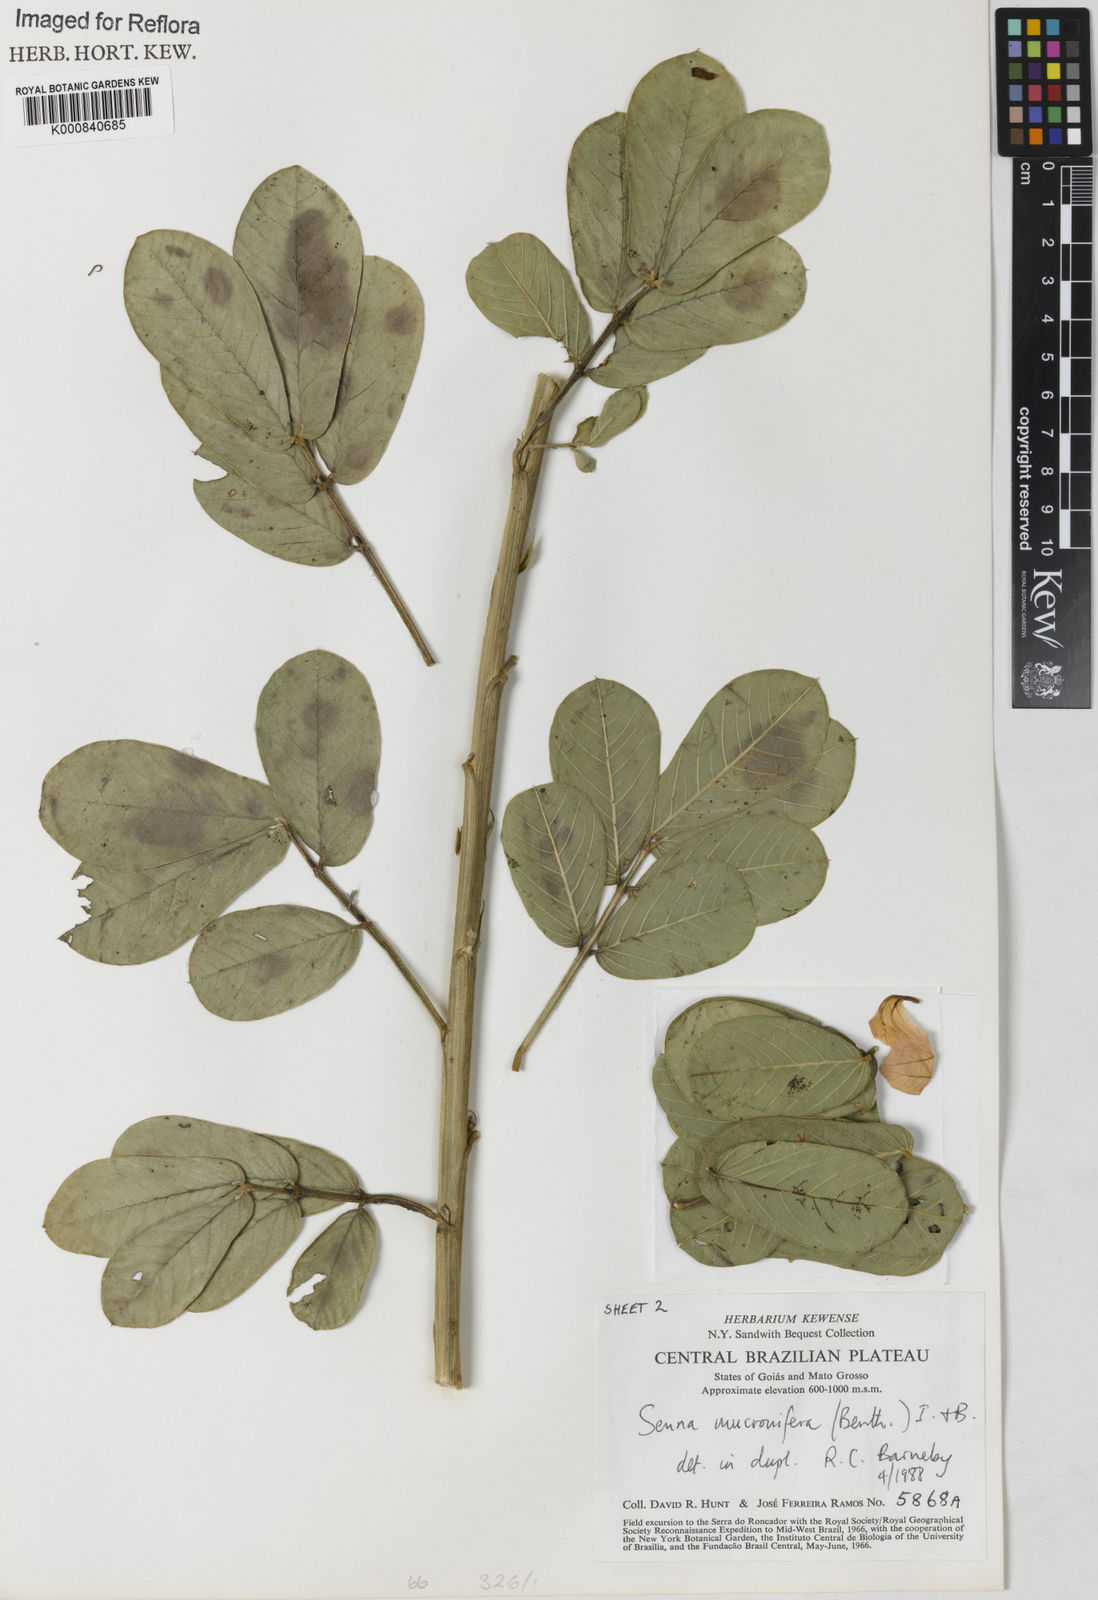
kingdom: Plantae
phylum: Tracheophyta
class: Magnoliopsida
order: Fabales
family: Fabaceae
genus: Senna
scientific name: Senna mucronifera
